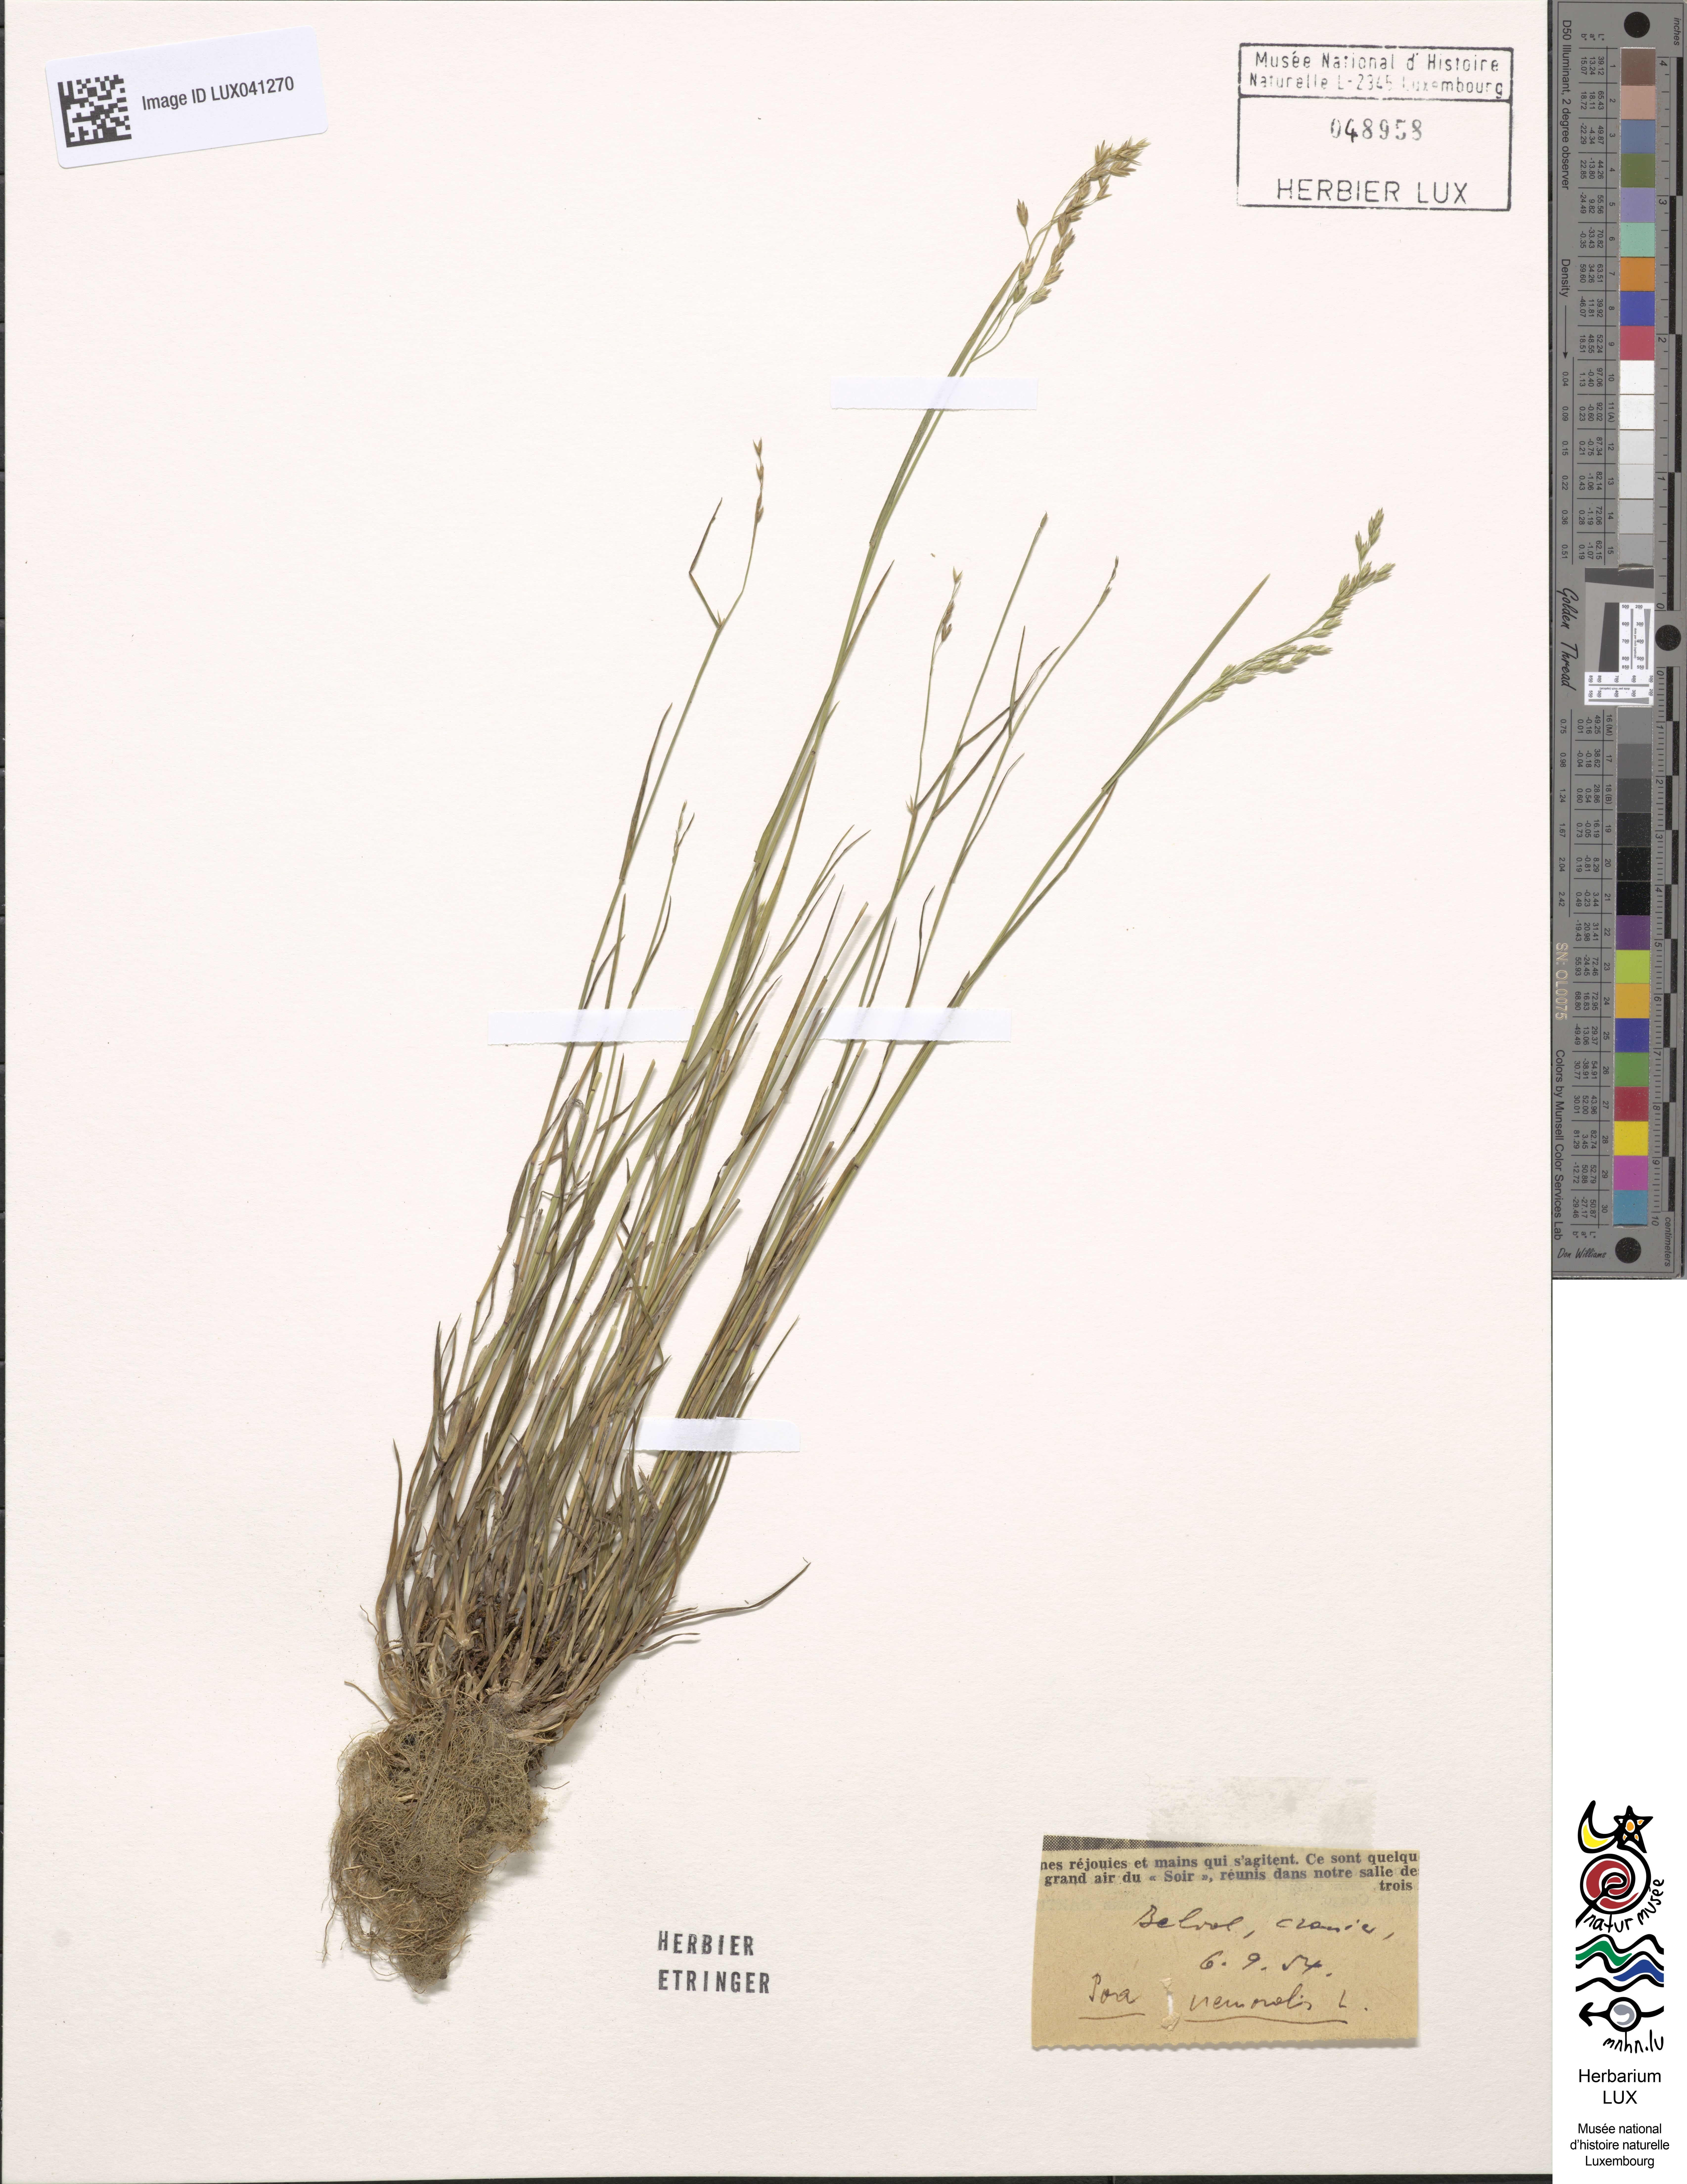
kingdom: Plantae
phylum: Tracheophyta
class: Liliopsida
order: Poales
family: Poaceae
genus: Poa
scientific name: Poa nemoralis
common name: Wood bluegrass
